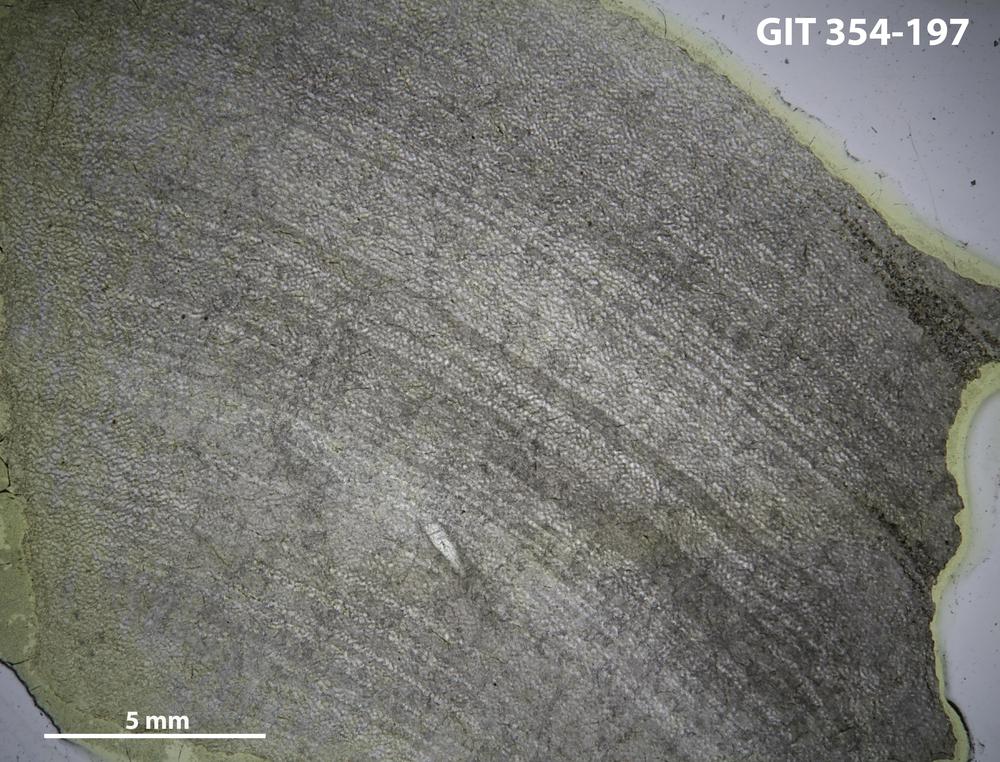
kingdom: Animalia
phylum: Porifera
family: Ecclimadictyidae
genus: Ecclimadictyon
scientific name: Ecclimadictyon Clathrodictyon microvesiculosum
